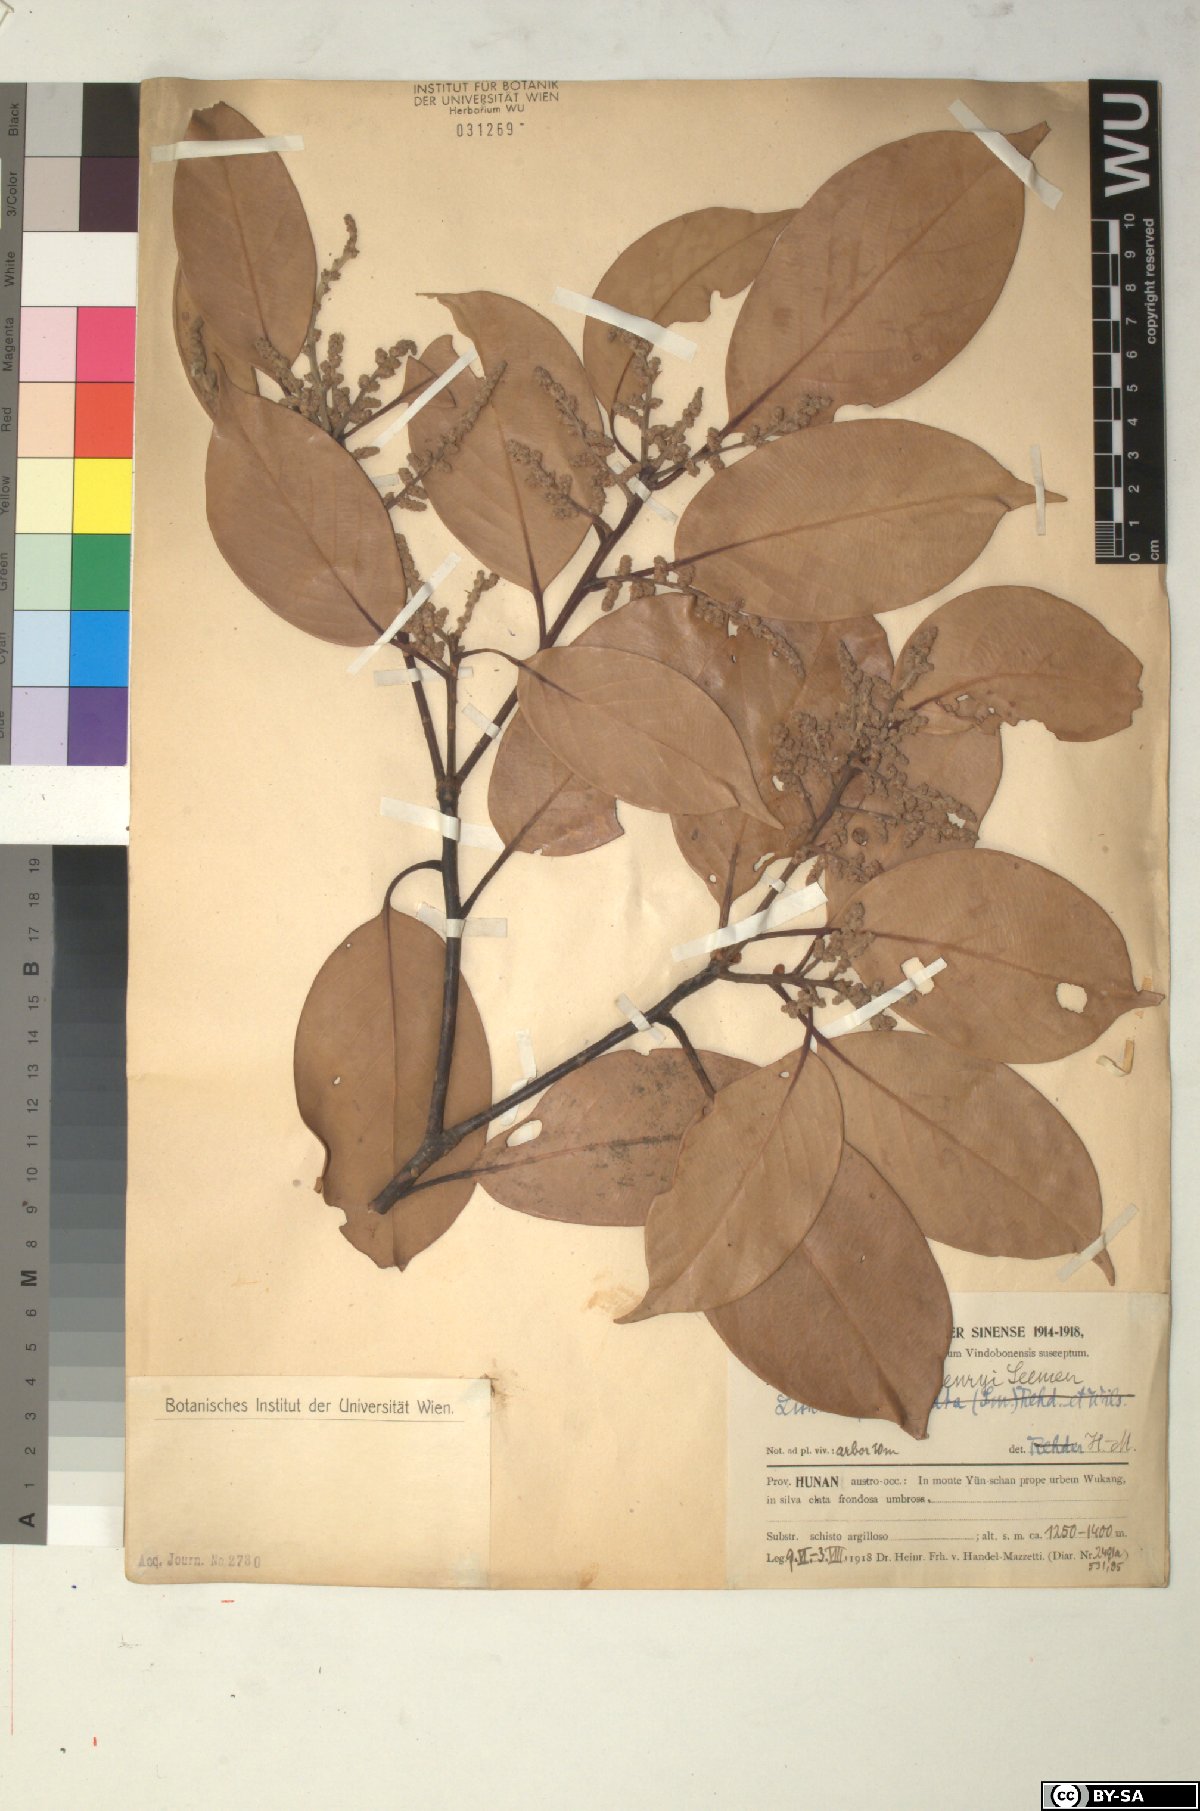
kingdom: Plantae
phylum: Tracheophyta
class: Magnoliopsida
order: Fagales
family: Fagaceae
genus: Lithocarpus
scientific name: Lithocarpus henryi
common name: Henry tanbark oak
